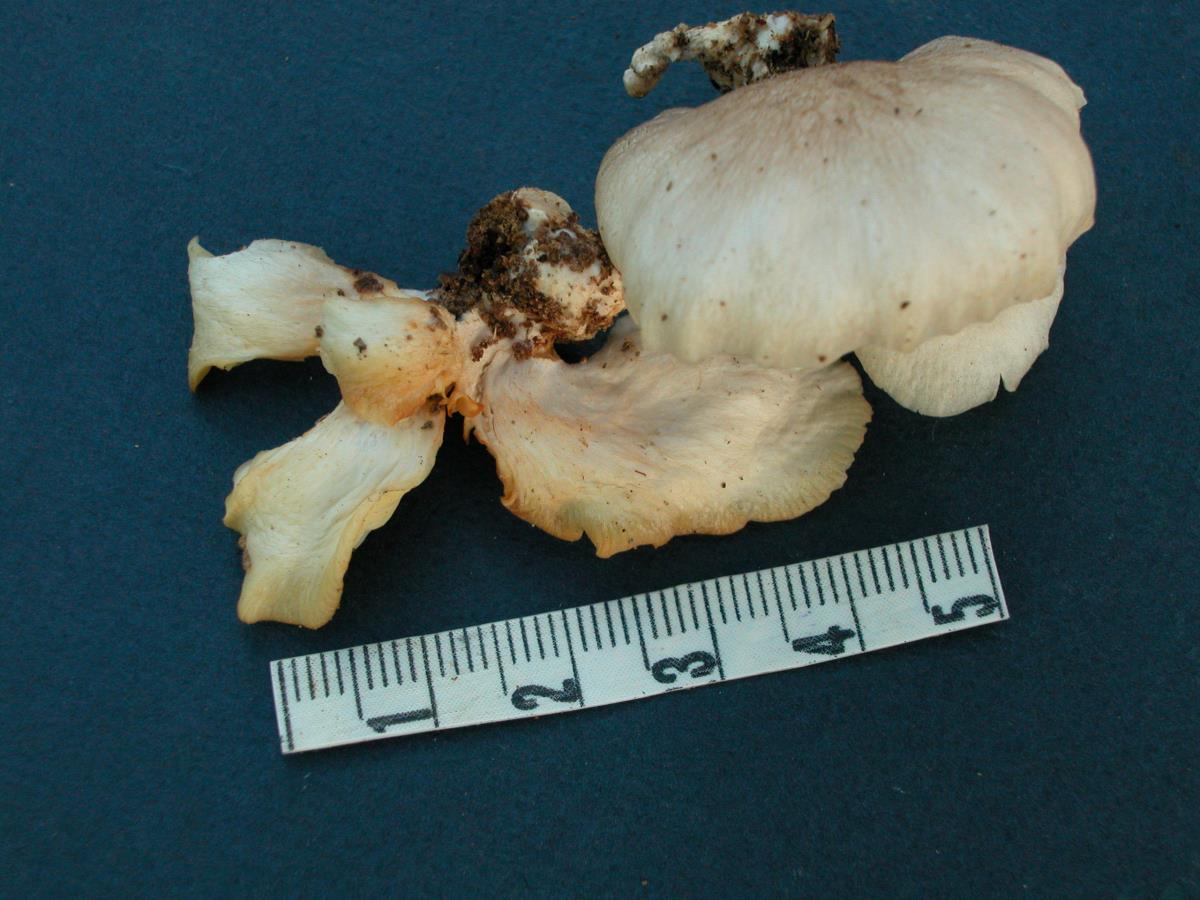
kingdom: Fungi
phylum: Basidiomycota
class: Agaricomycetes
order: Agaricales
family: Pleurotaceae
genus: Pleurotus
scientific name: Pleurotus djamor
